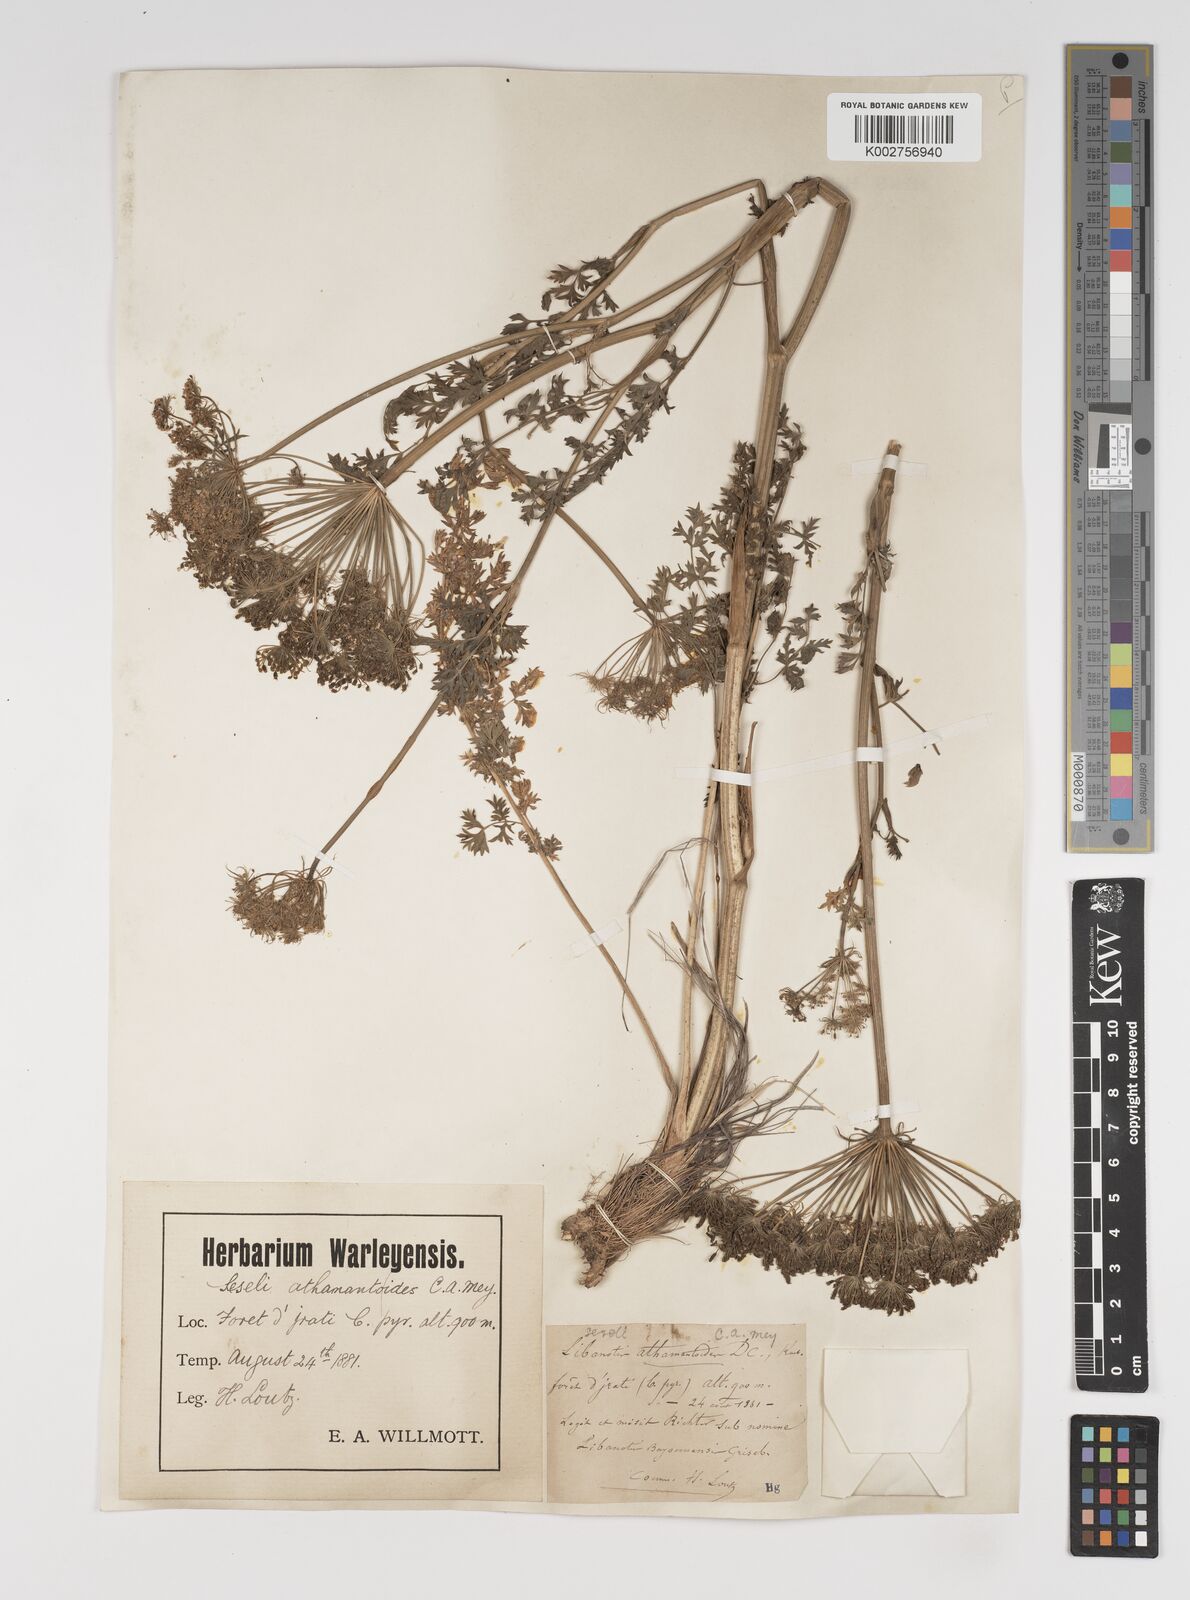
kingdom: Plantae
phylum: Tracheophyta
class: Magnoliopsida
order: Apiales
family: Apiaceae
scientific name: Apiaceae
